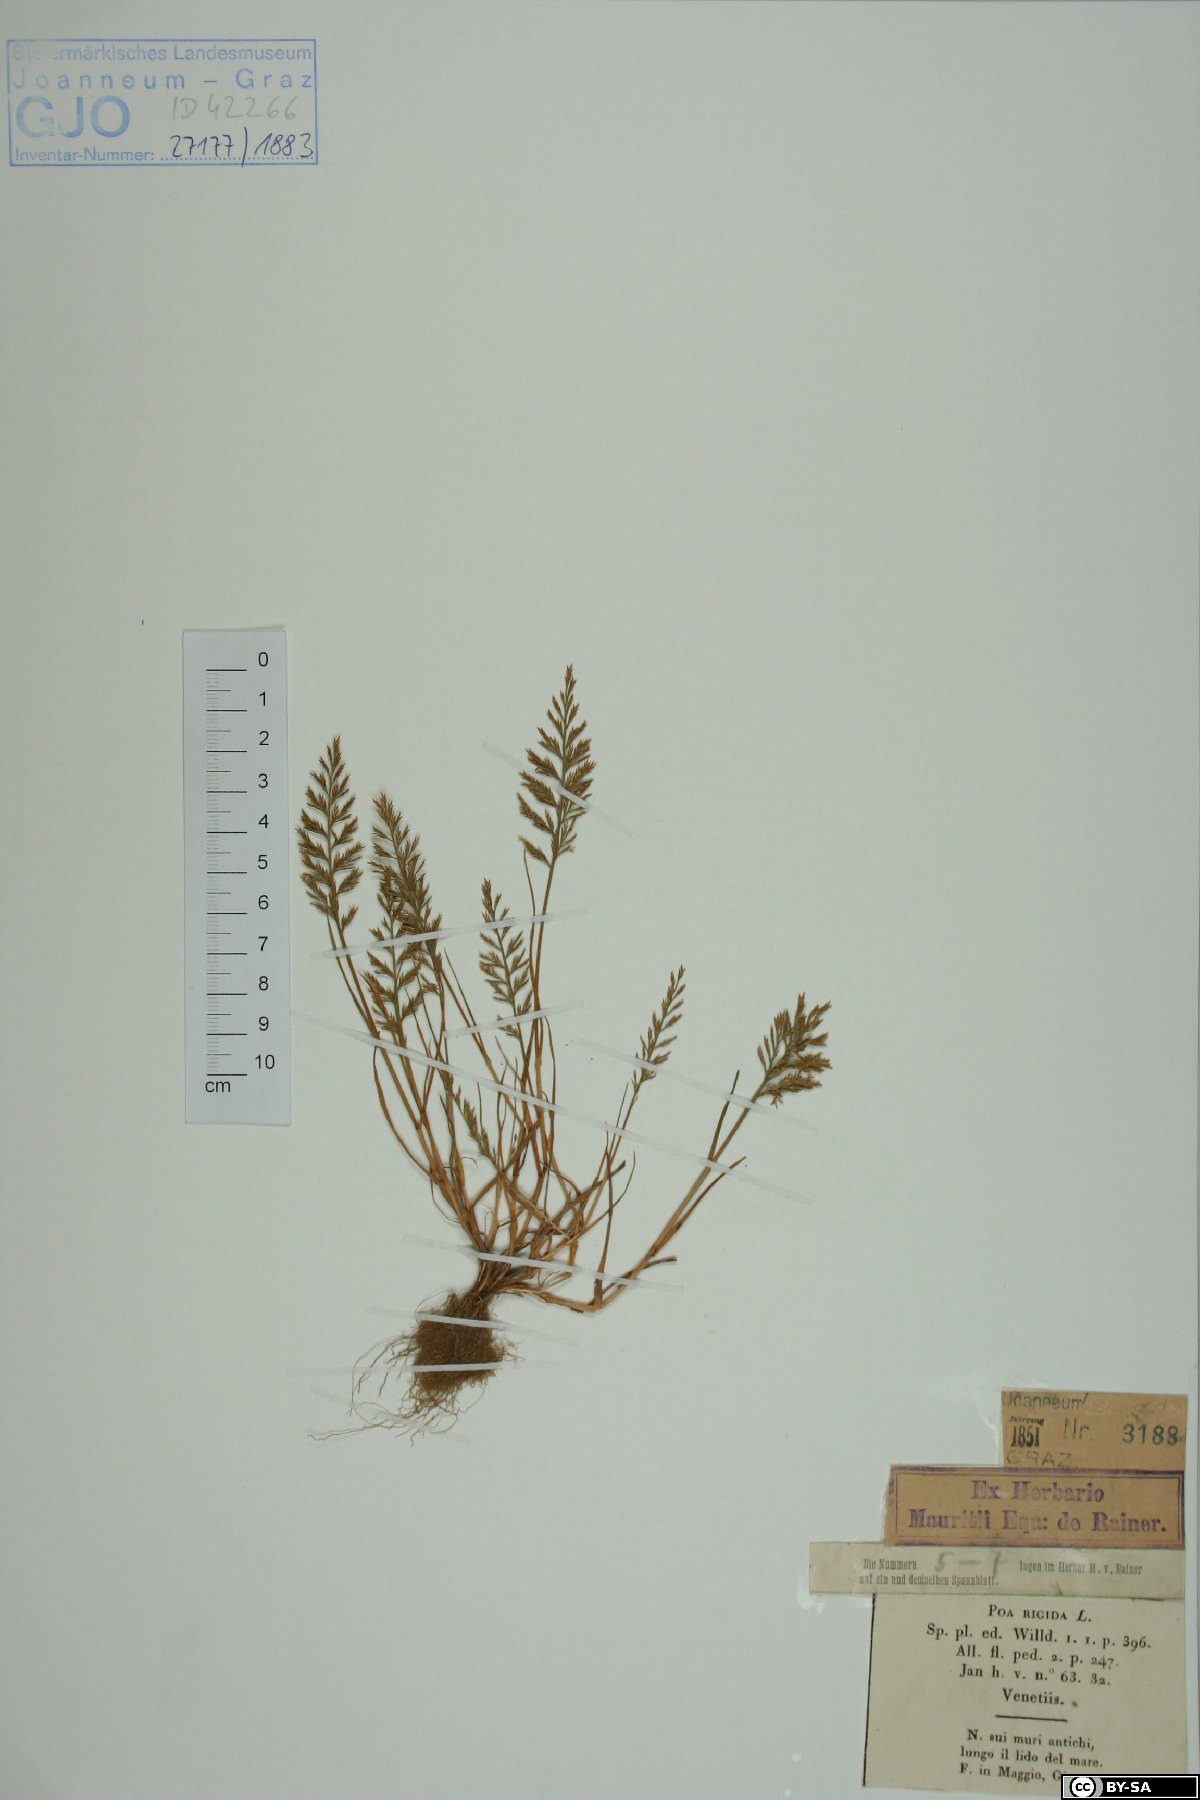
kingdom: Plantae
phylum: Tracheophyta
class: Liliopsida
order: Poales
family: Poaceae
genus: Catapodium
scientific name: Catapodium rigidum
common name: Fern-grass
